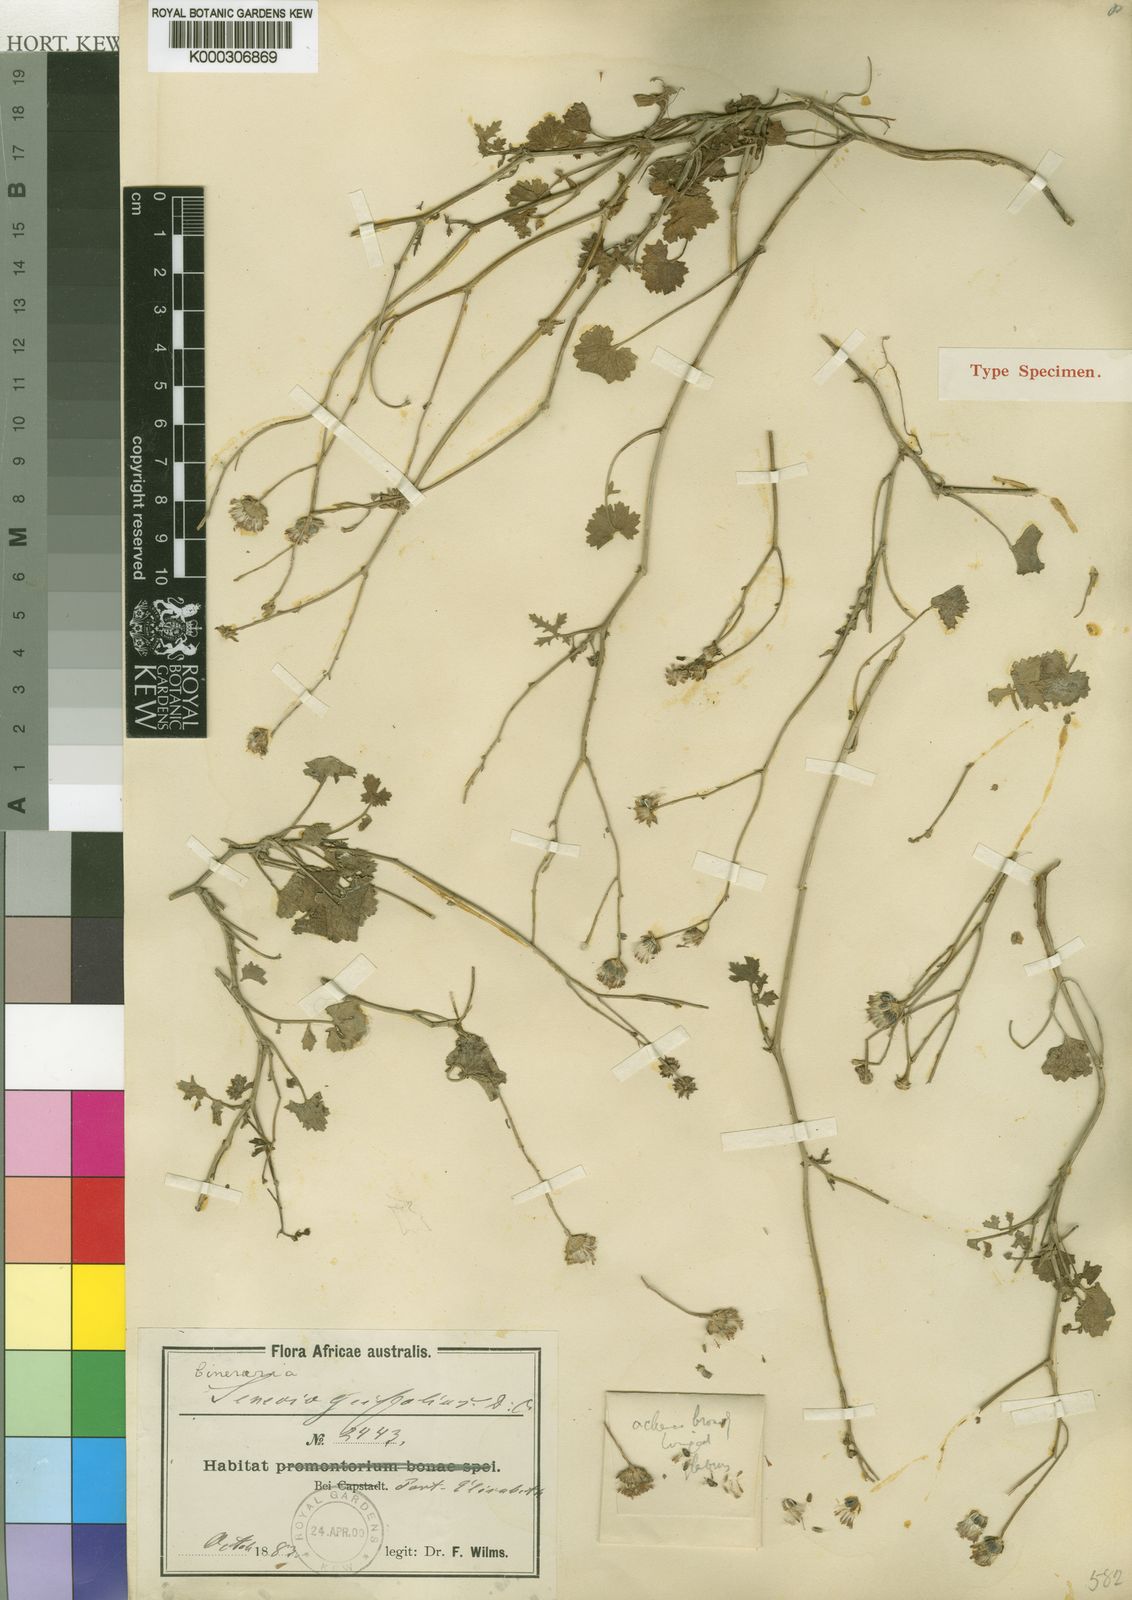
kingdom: Plantae
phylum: Tracheophyta
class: Magnoliopsida
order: Asterales
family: Asteraceae
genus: Cineraria
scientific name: Cineraria
